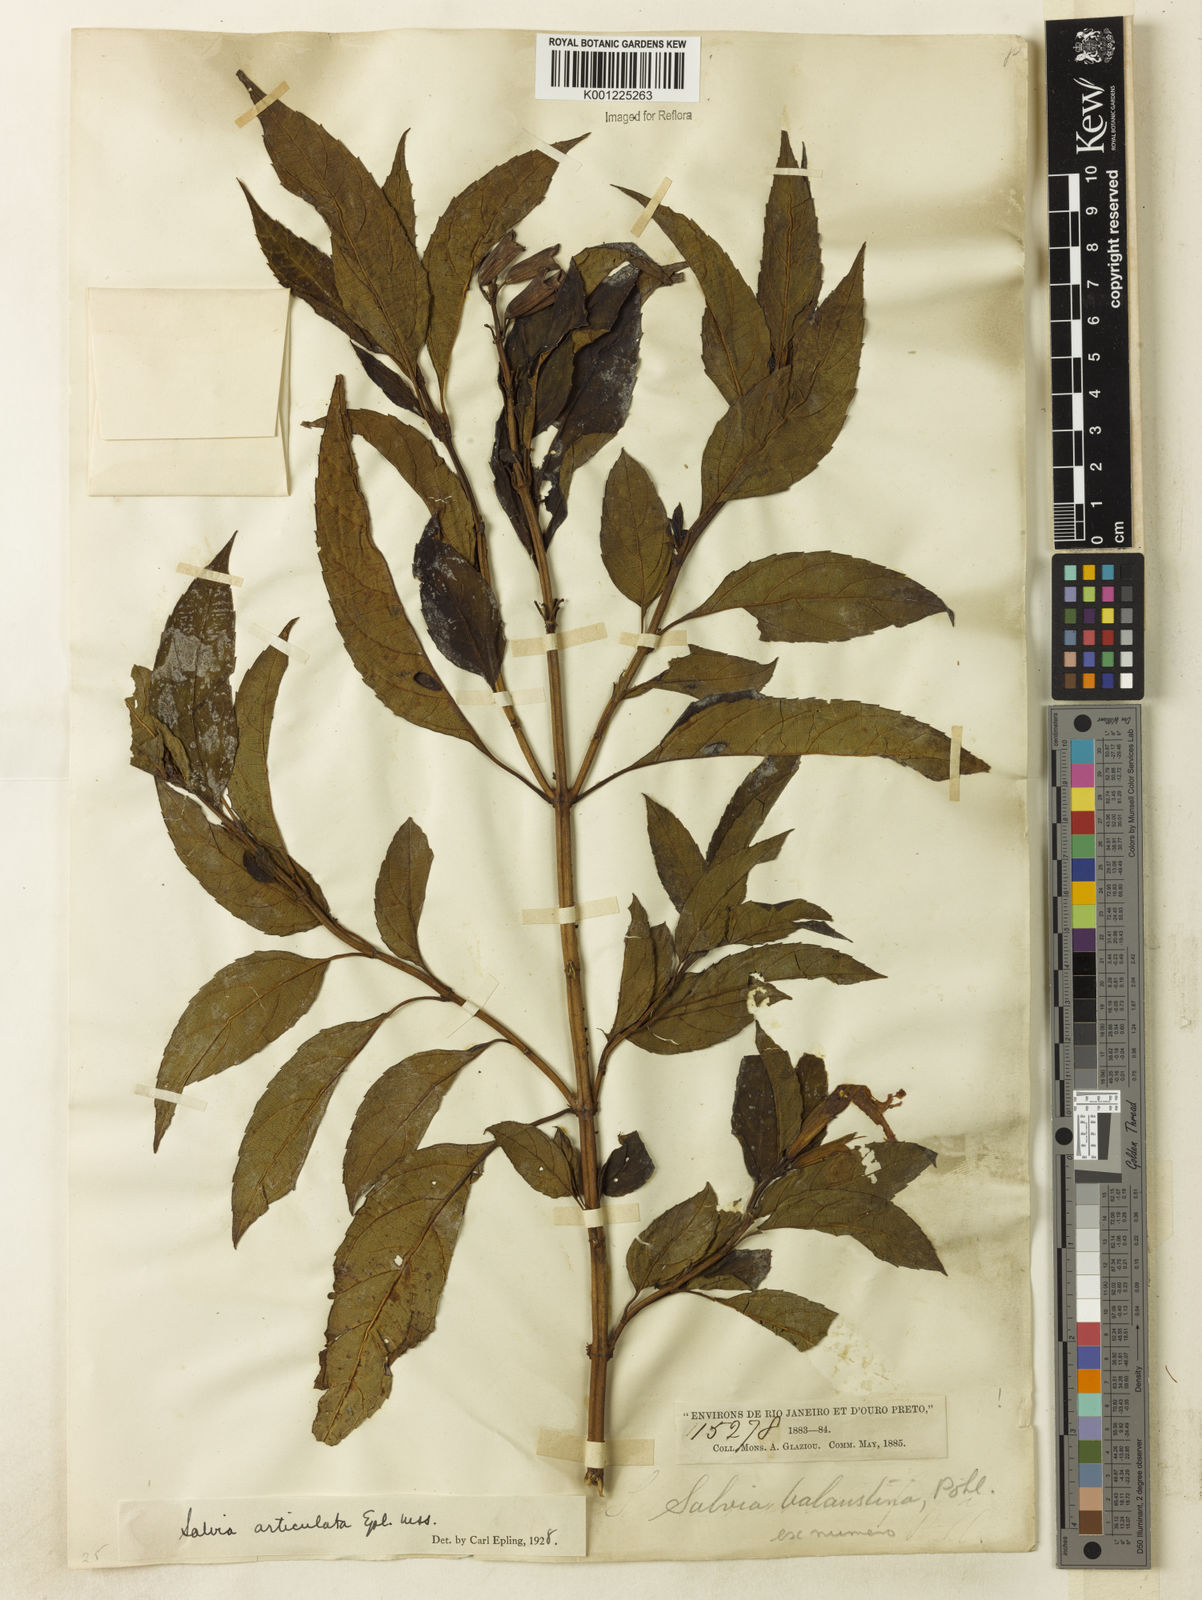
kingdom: Plantae
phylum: Tracheophyta
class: Magnoliopsida
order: Lamiales
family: Lamiaceae
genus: Salvia
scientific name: Salvia articulata
